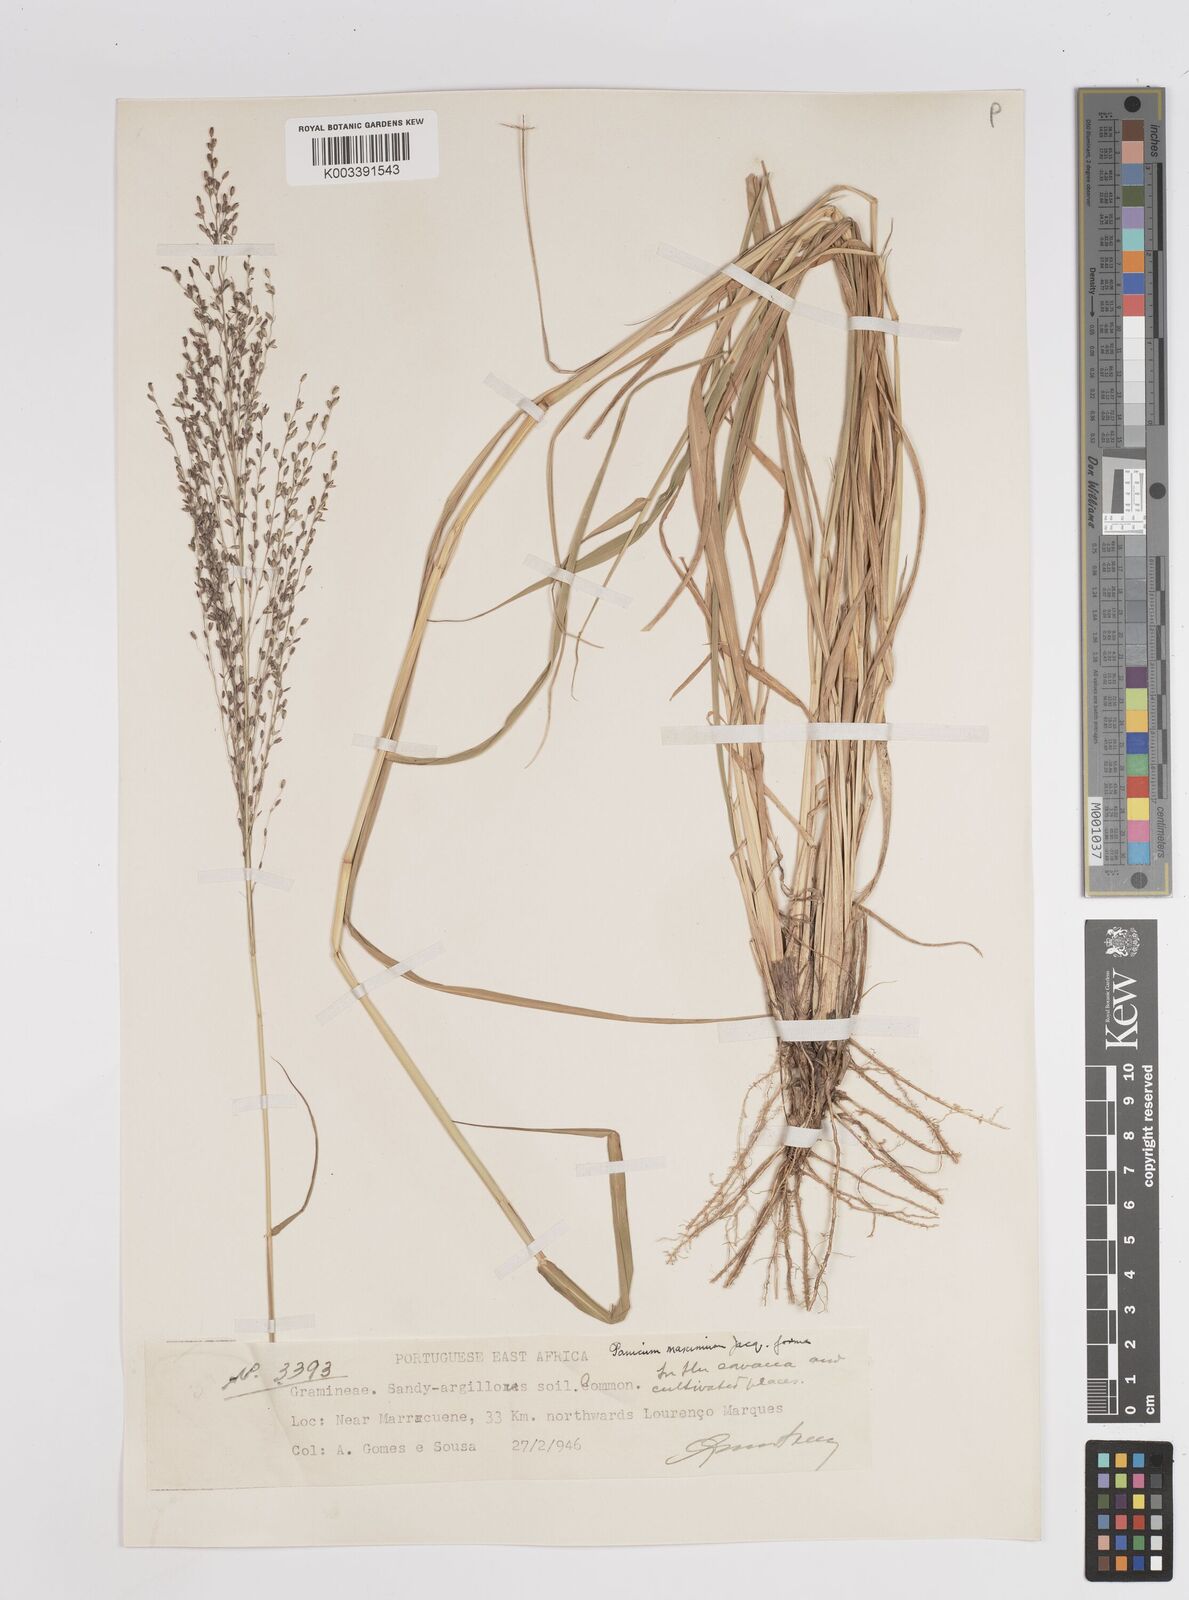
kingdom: Plantae
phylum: Tracheophyta
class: Liliopsida
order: Poales
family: Poaceae
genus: Megathyrsus
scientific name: Megathyrsus maximus
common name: Guineagrass
